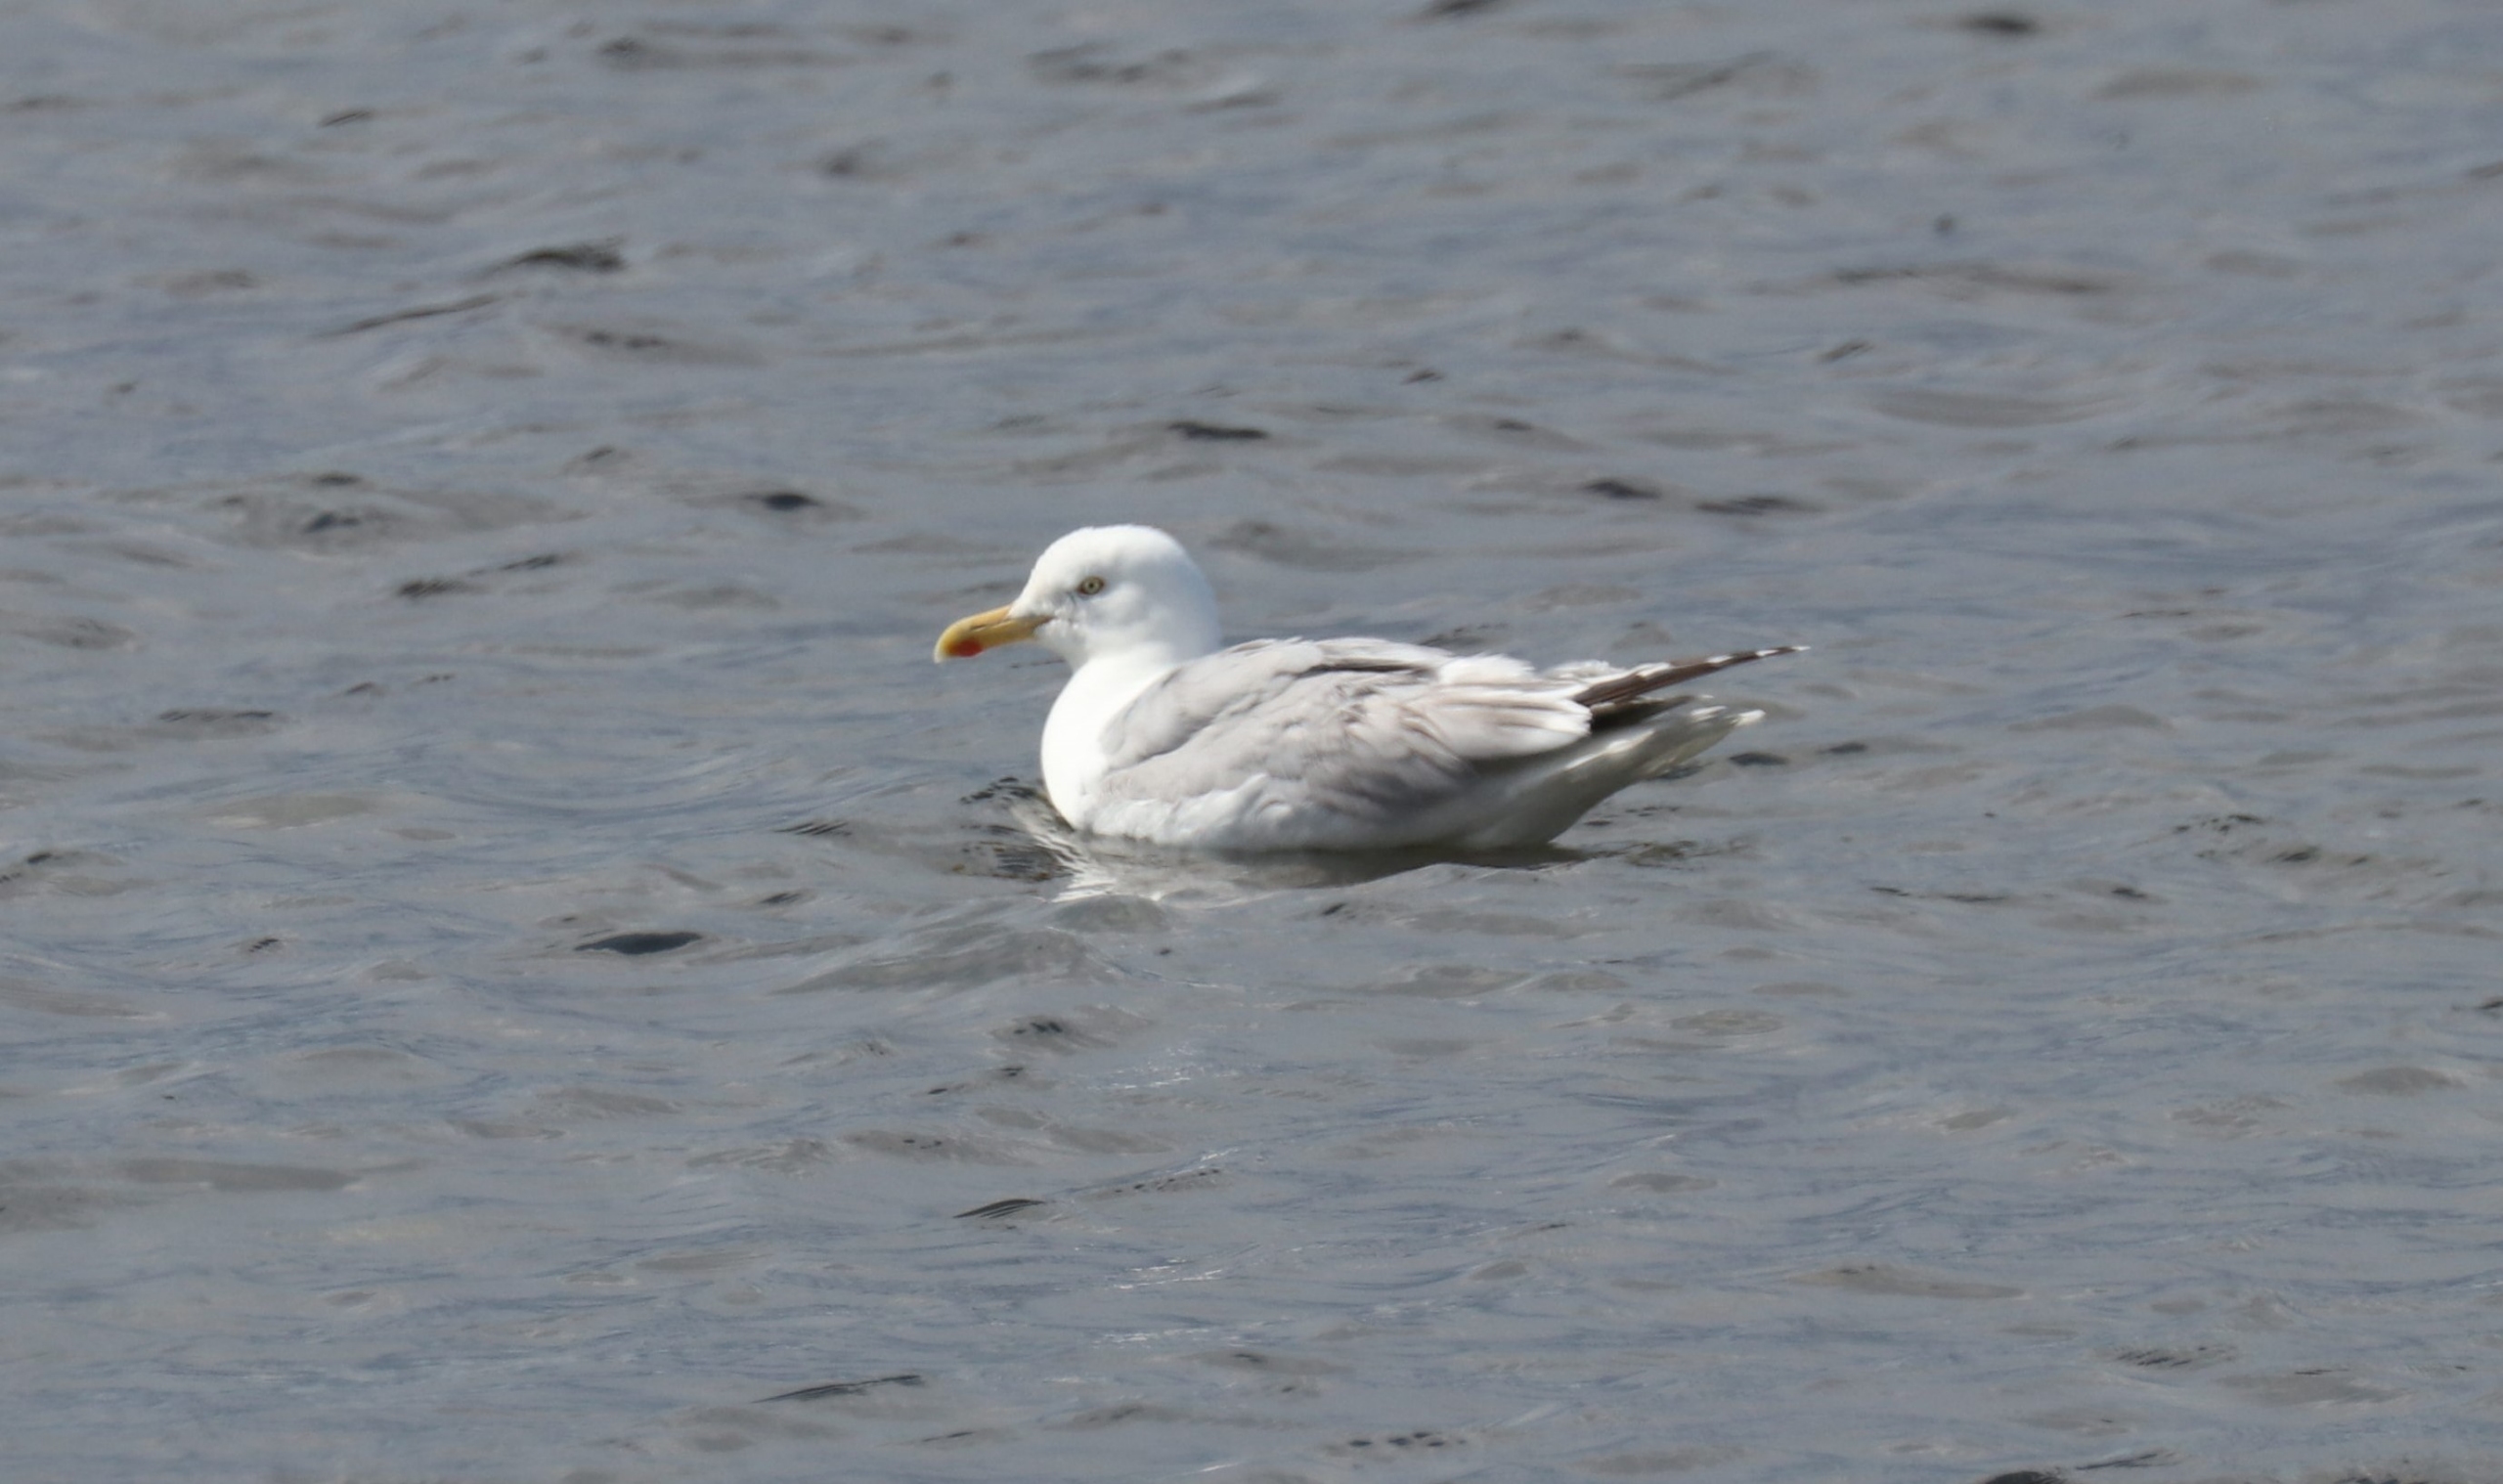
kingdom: Animalia
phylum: Chordata
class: Aves
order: Charadriiformes
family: Laridae
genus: Larus
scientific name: Larus argentatus
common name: Sølvmåge
